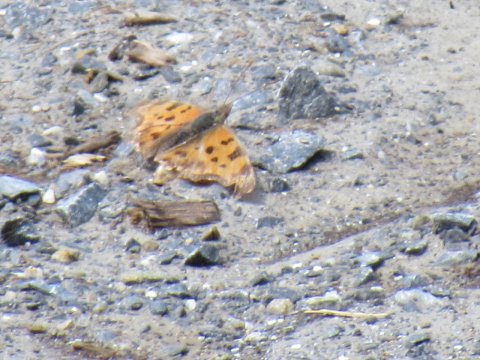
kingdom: Animalia
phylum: Arthropoda
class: Insecta
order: Lepidoptera
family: Nymphalidae
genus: Polygonia
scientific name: Polygonia comma
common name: Eastern Comma
